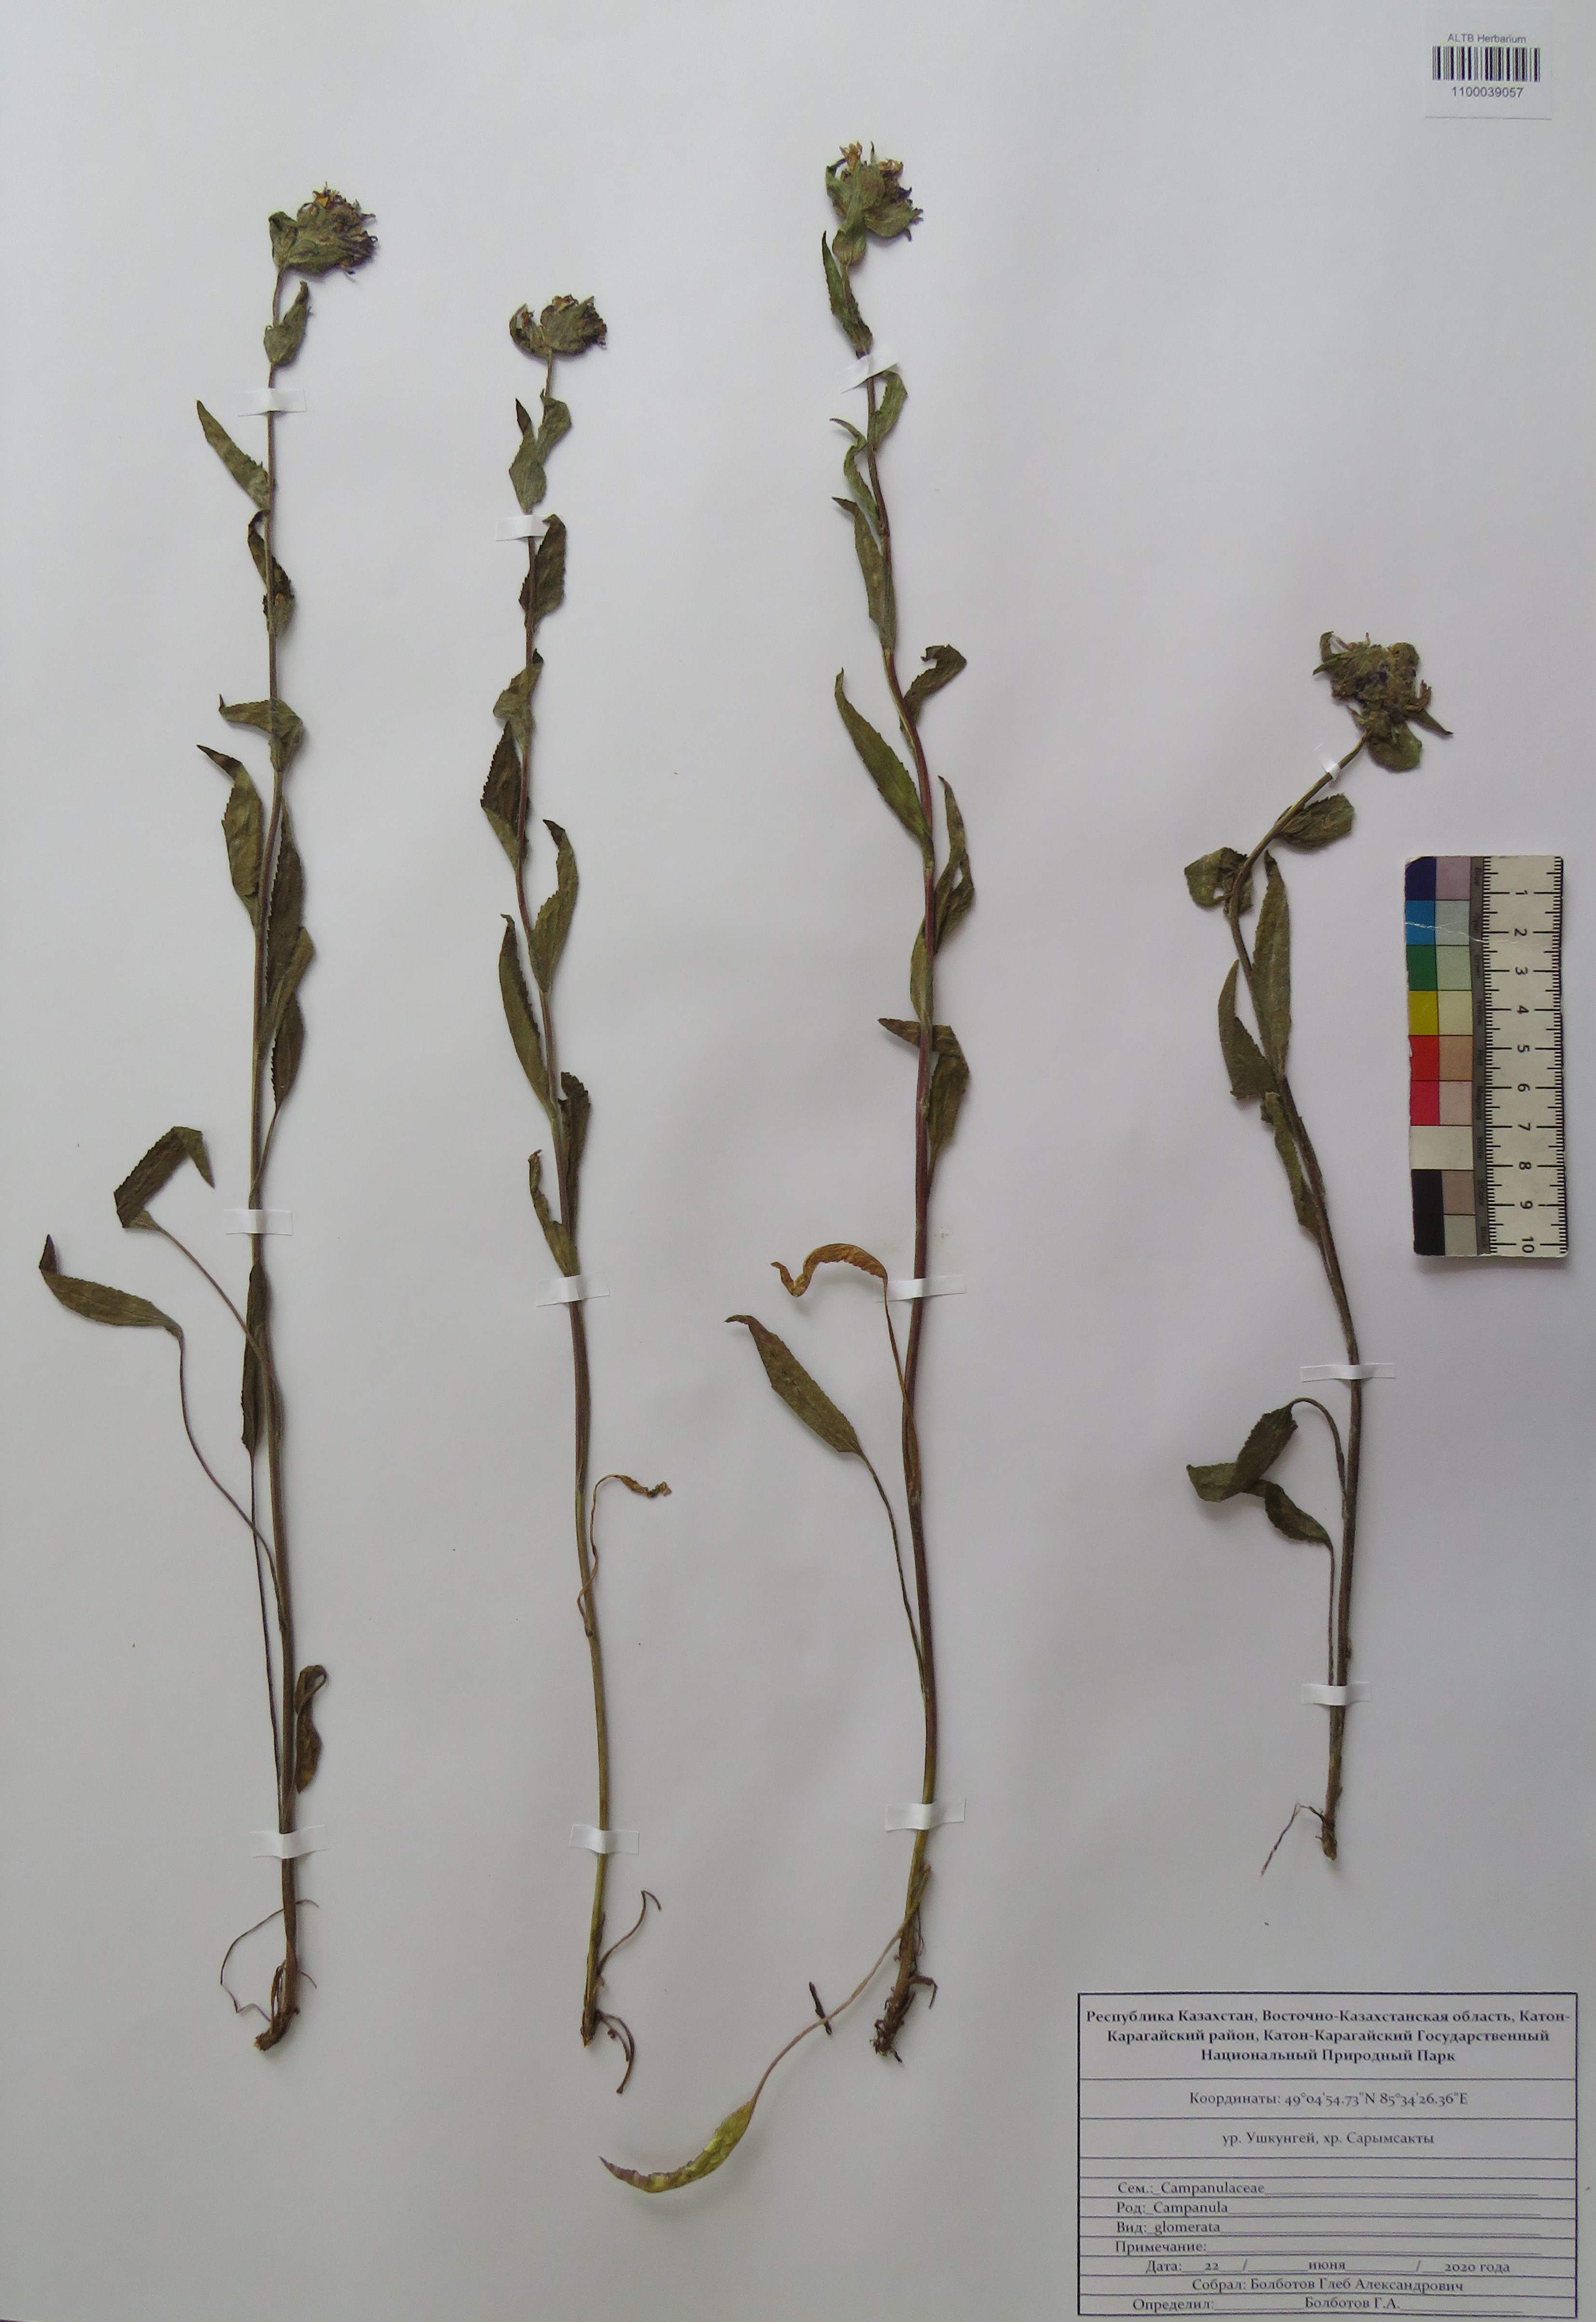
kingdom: Plantae
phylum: Tracheophyta
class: Magnoliopsida
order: Asterales
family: Campanulaceae
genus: Campanula
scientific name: Campanula glomerata
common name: Clustered bellflower
